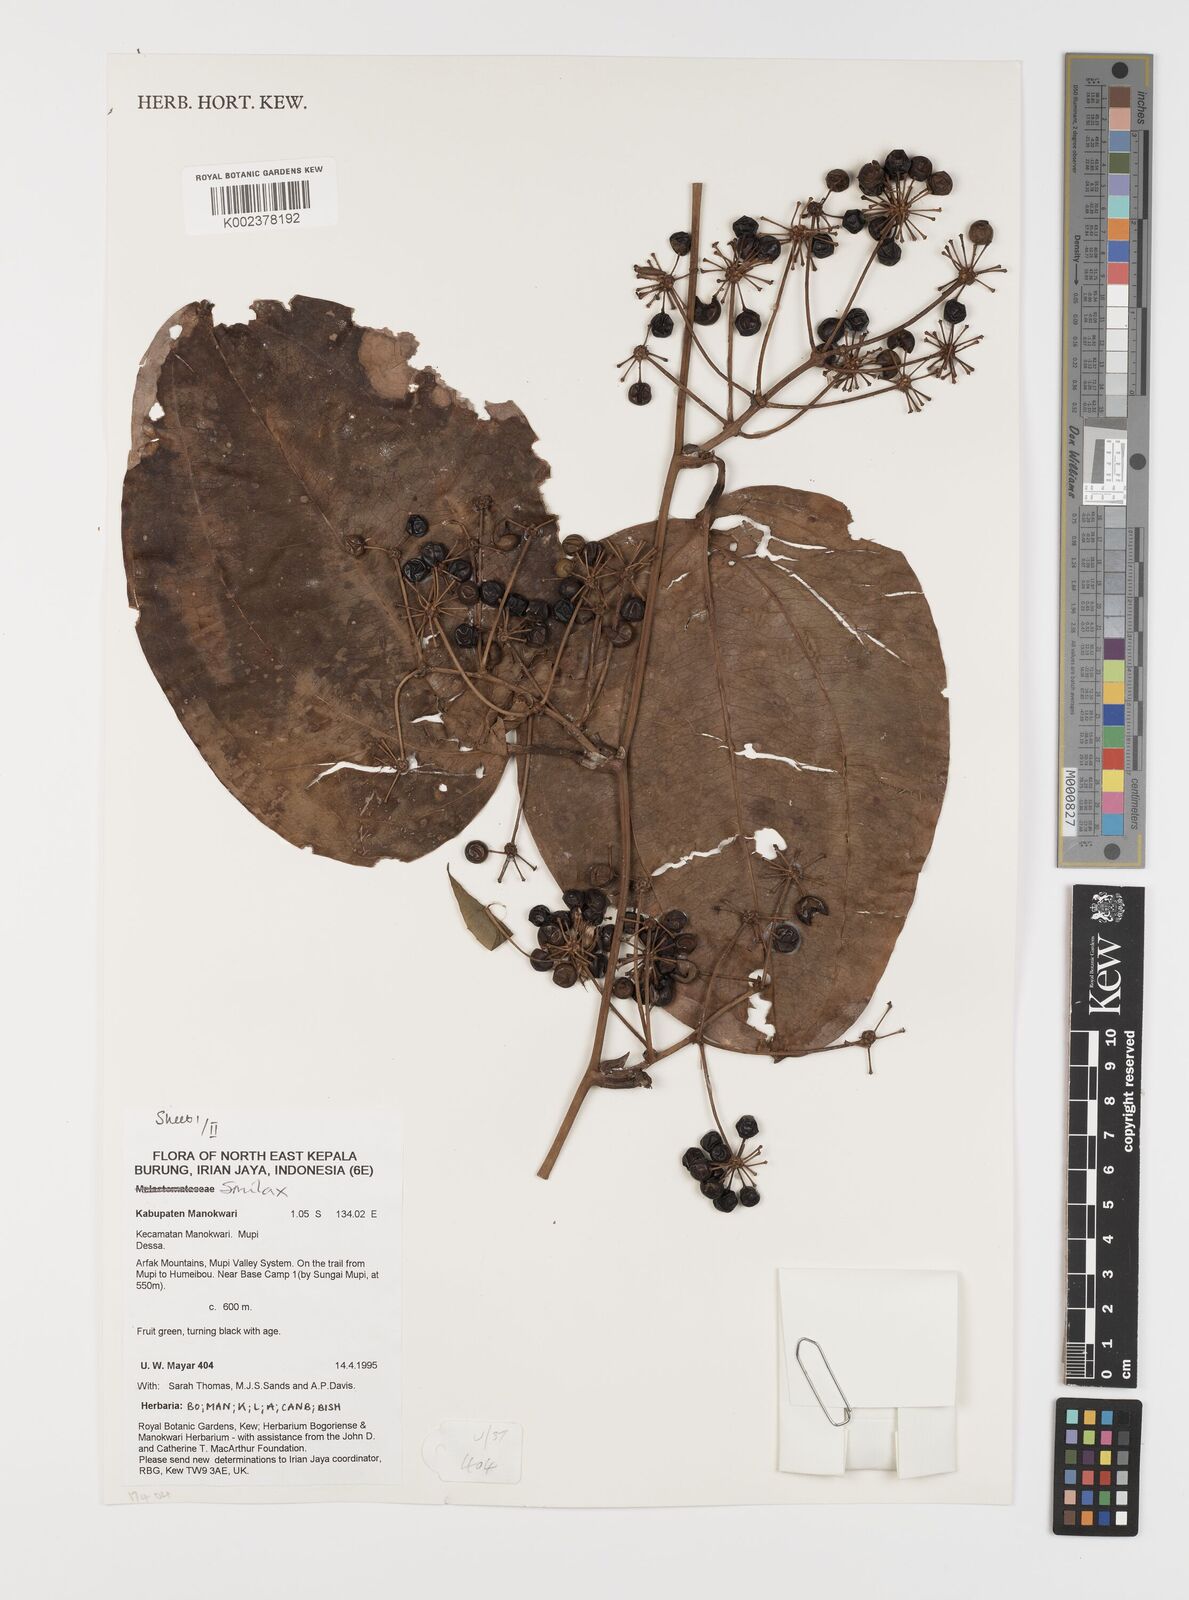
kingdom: Plantae
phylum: Tracheophyta
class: Liliopsida
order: Liliales
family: Smilacaceae
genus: Smilax
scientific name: Smilax
